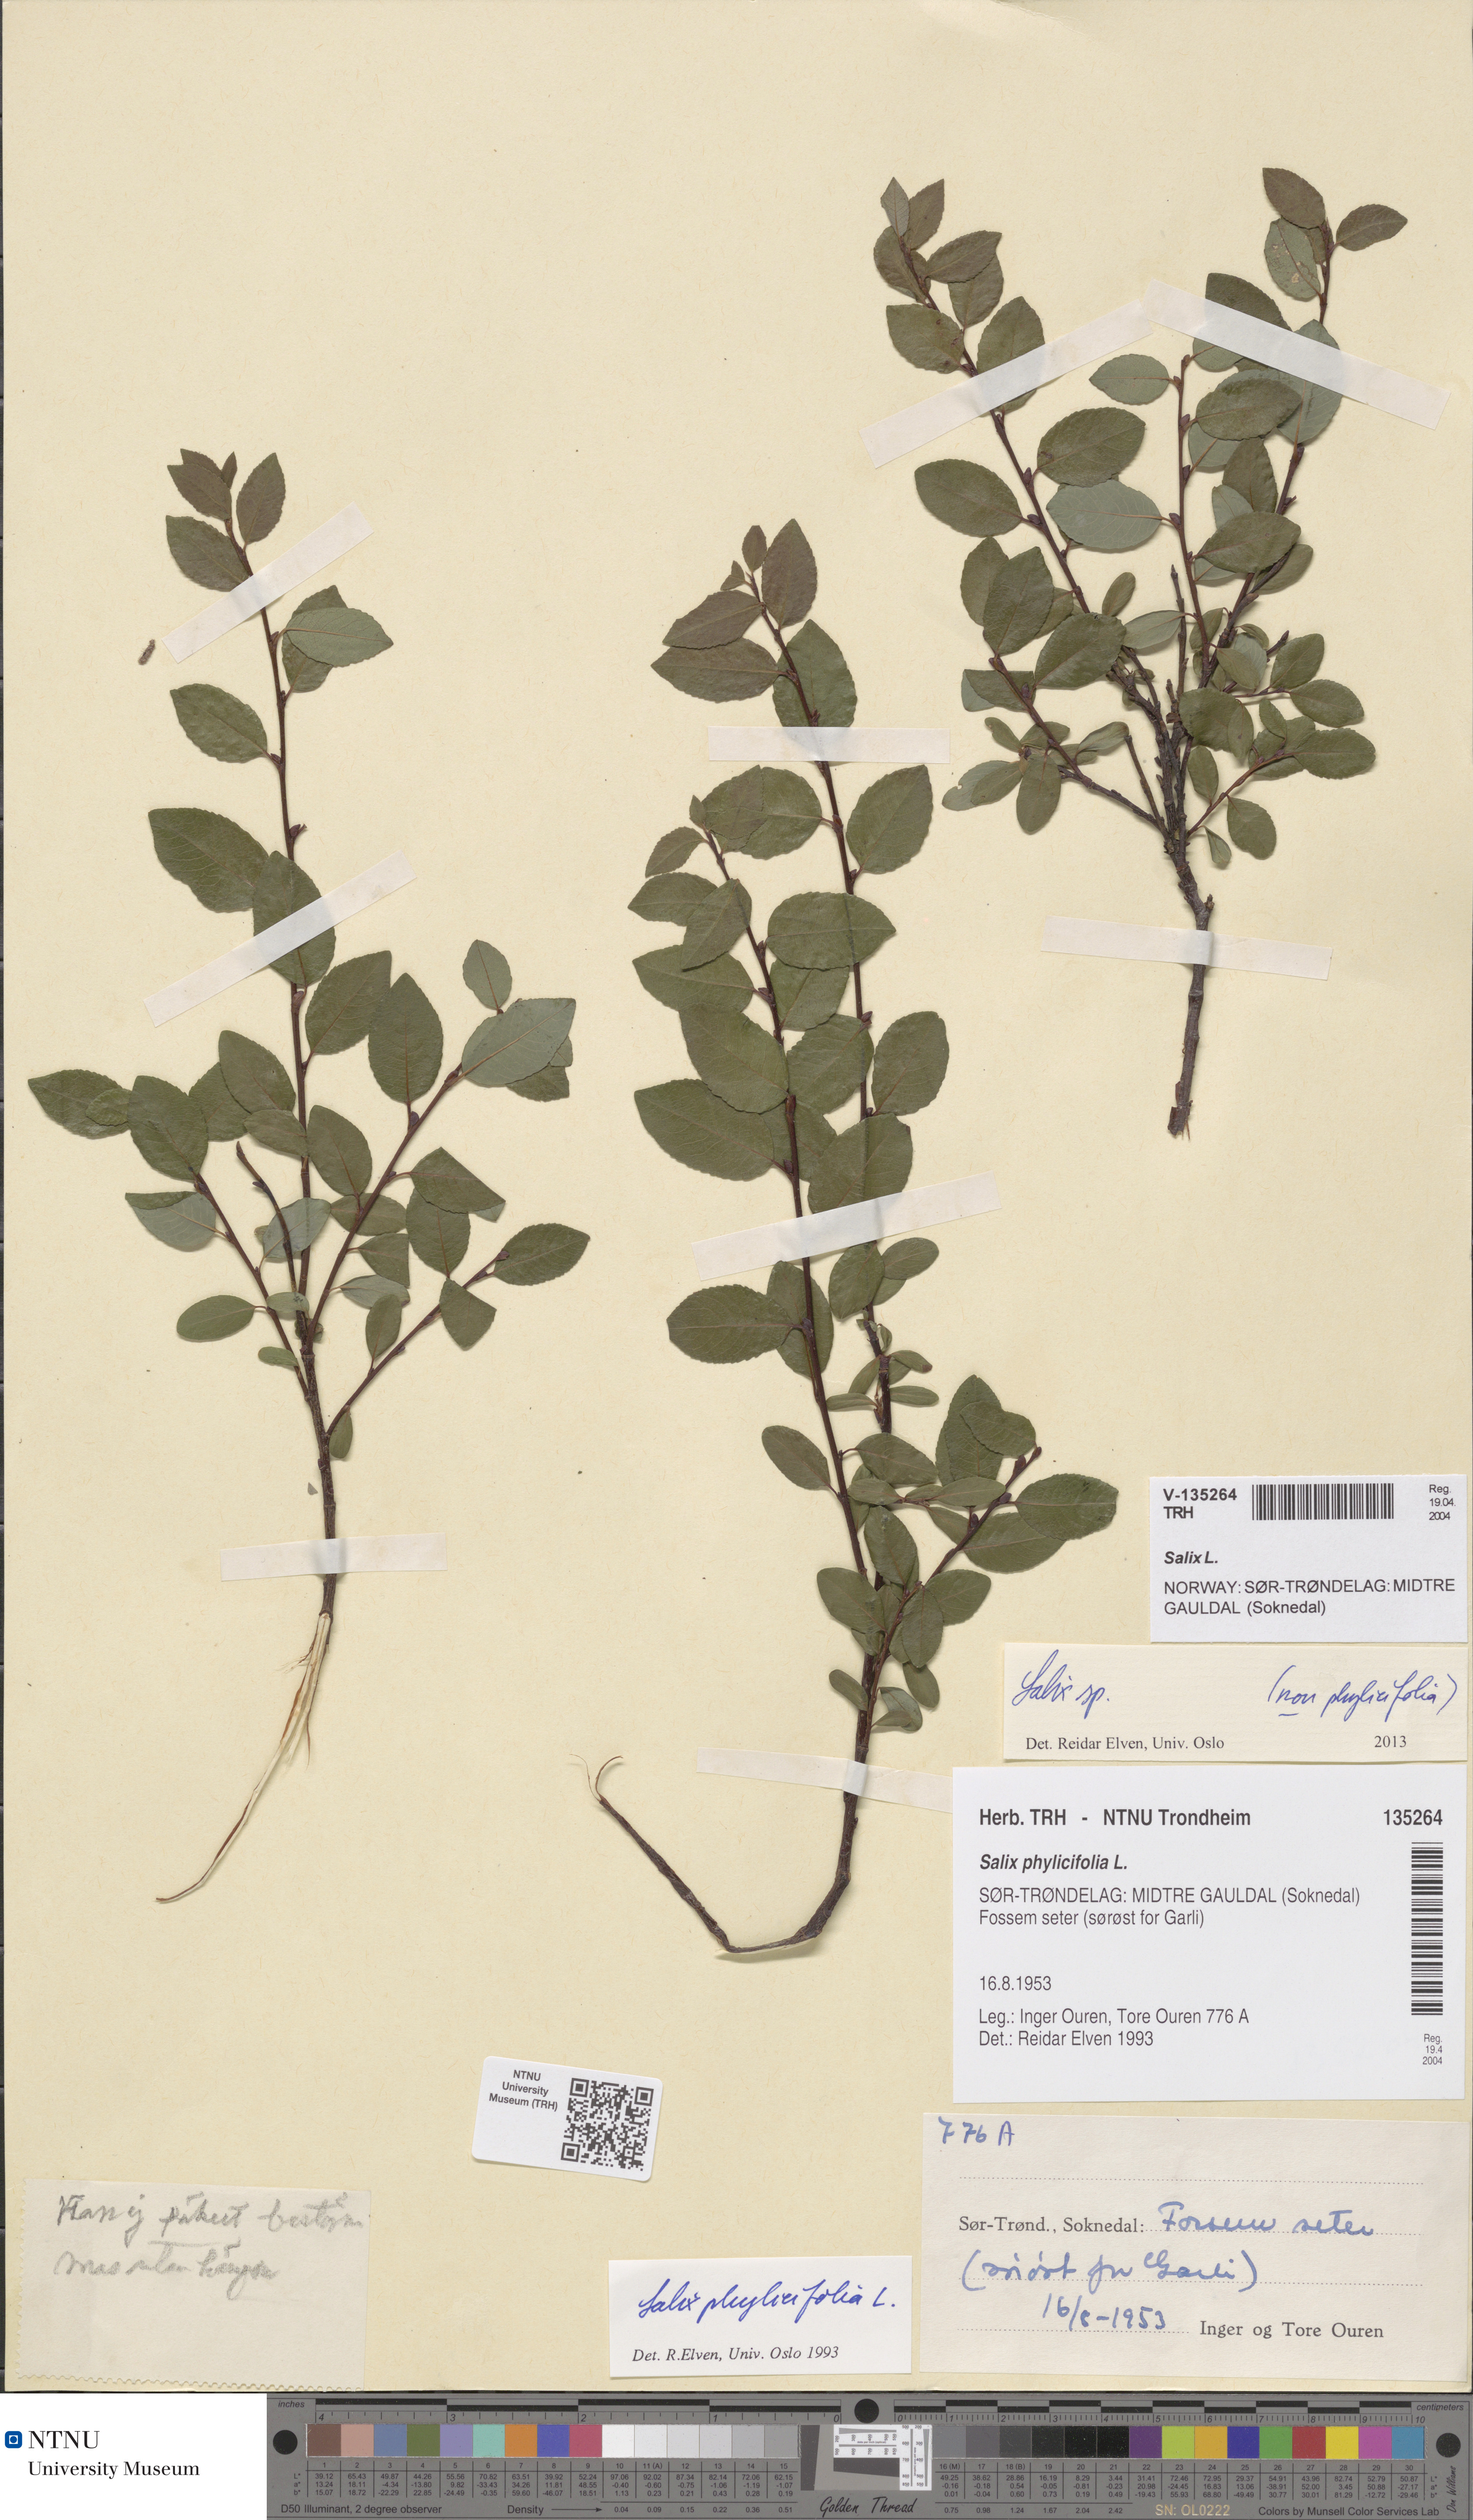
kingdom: Plantae
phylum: Tracheophyta
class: Magnoliopsida
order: Malpighiales
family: Salicaceae
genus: Salix
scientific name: Salix
